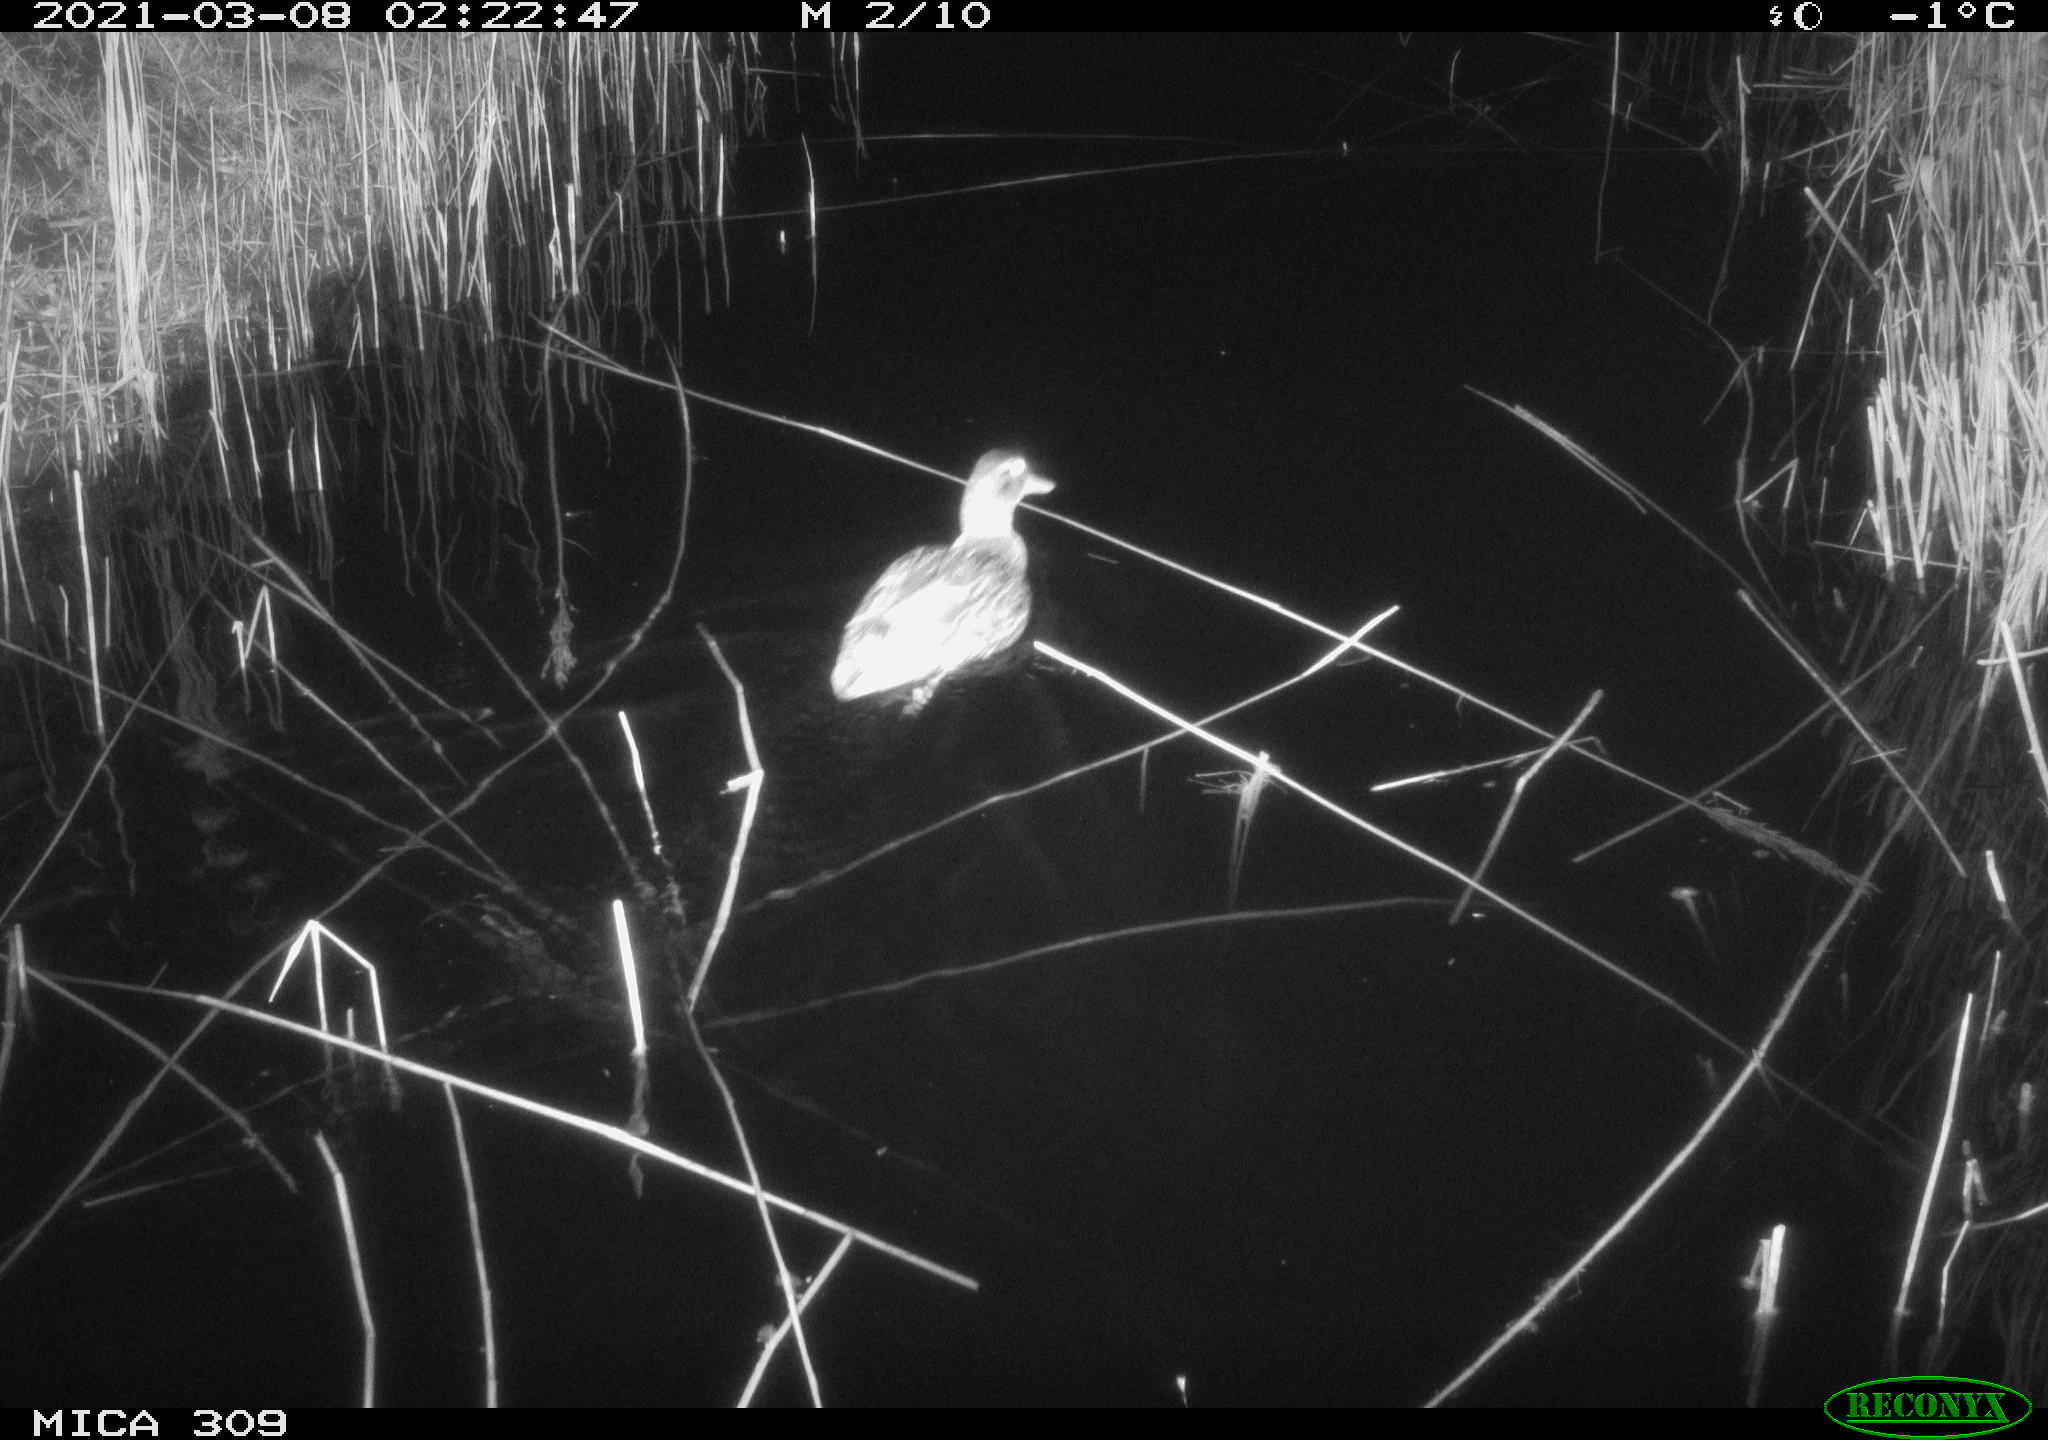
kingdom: Animalia
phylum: Chordata
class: Aves
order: Anseriformes
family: Anatidae
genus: Anas
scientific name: Anas platyrhynchos
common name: Mallard
